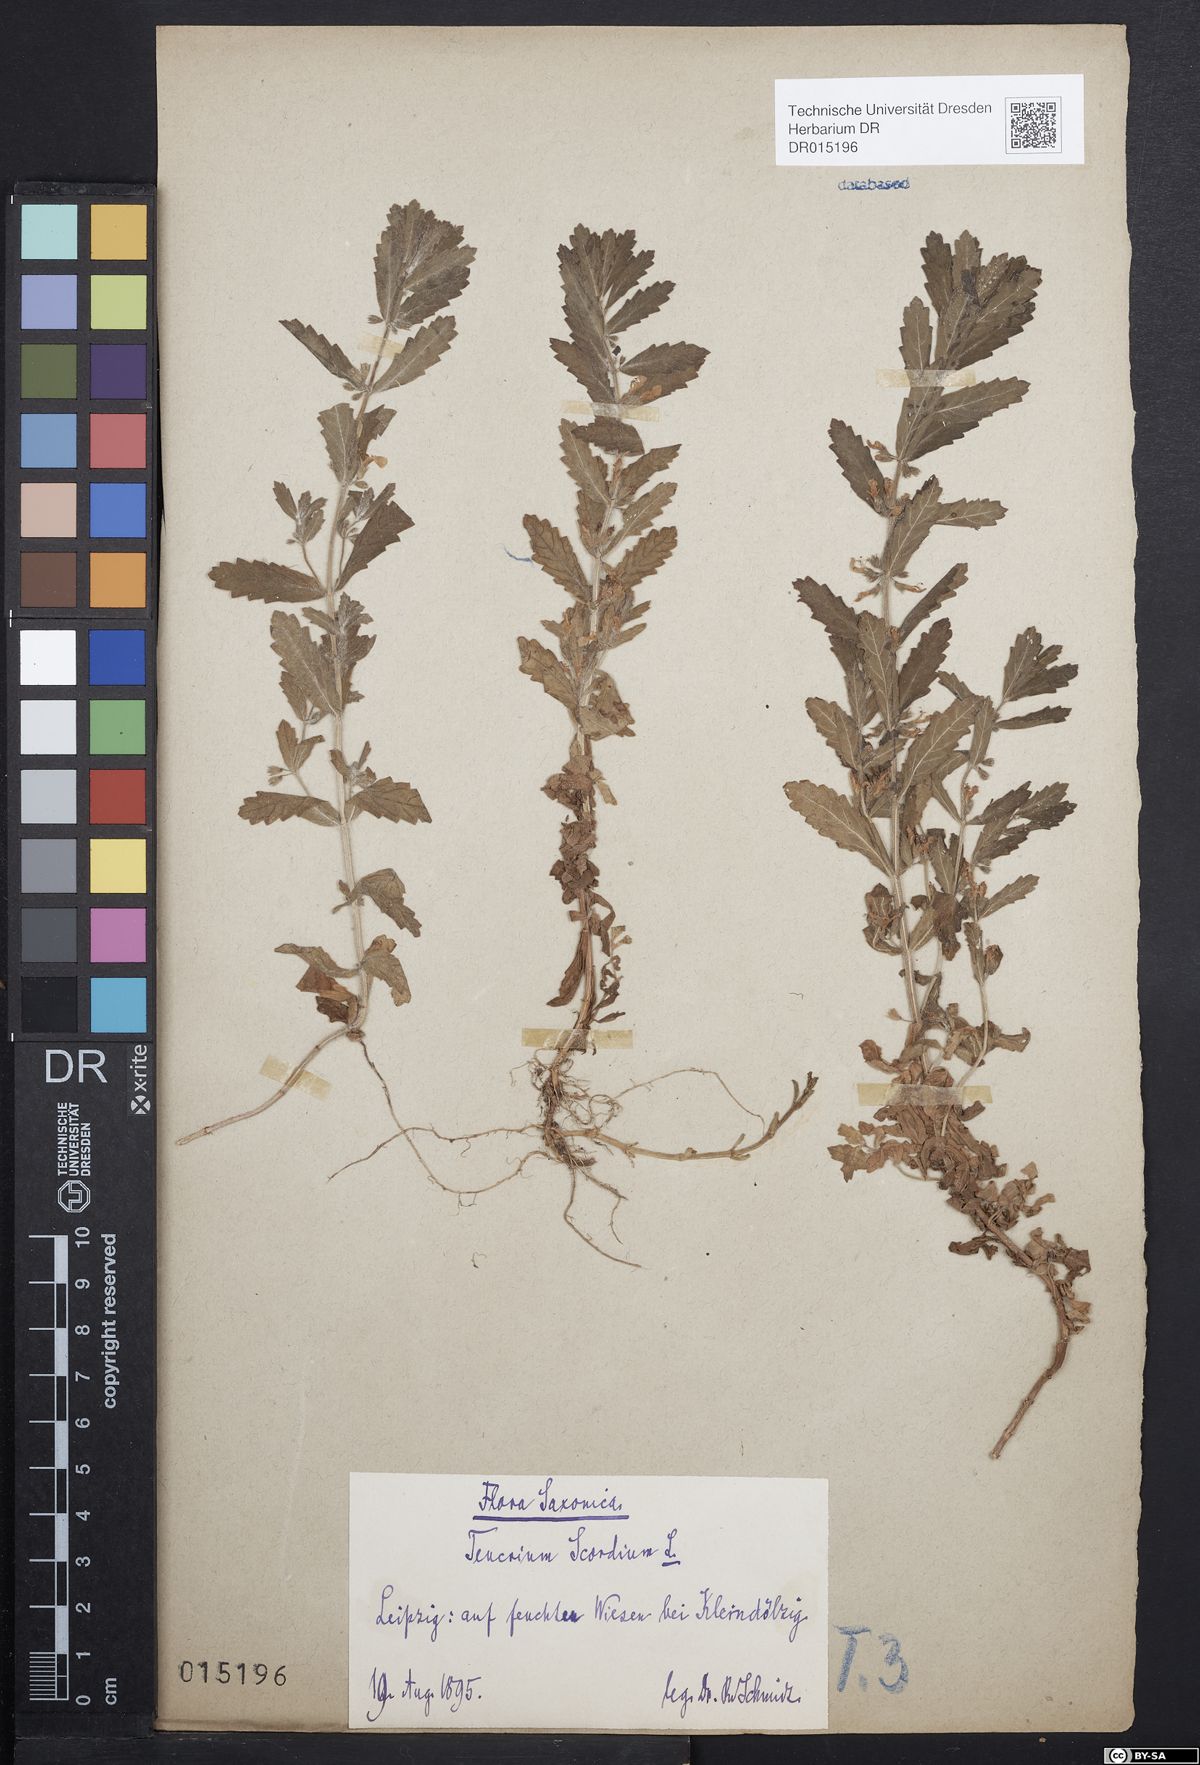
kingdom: Plantae
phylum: Tracheophyta
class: Magnoliopsida
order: Lamiales
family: Lamiaceae
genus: Teucrium
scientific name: Teucrium scordium
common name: Water germander
